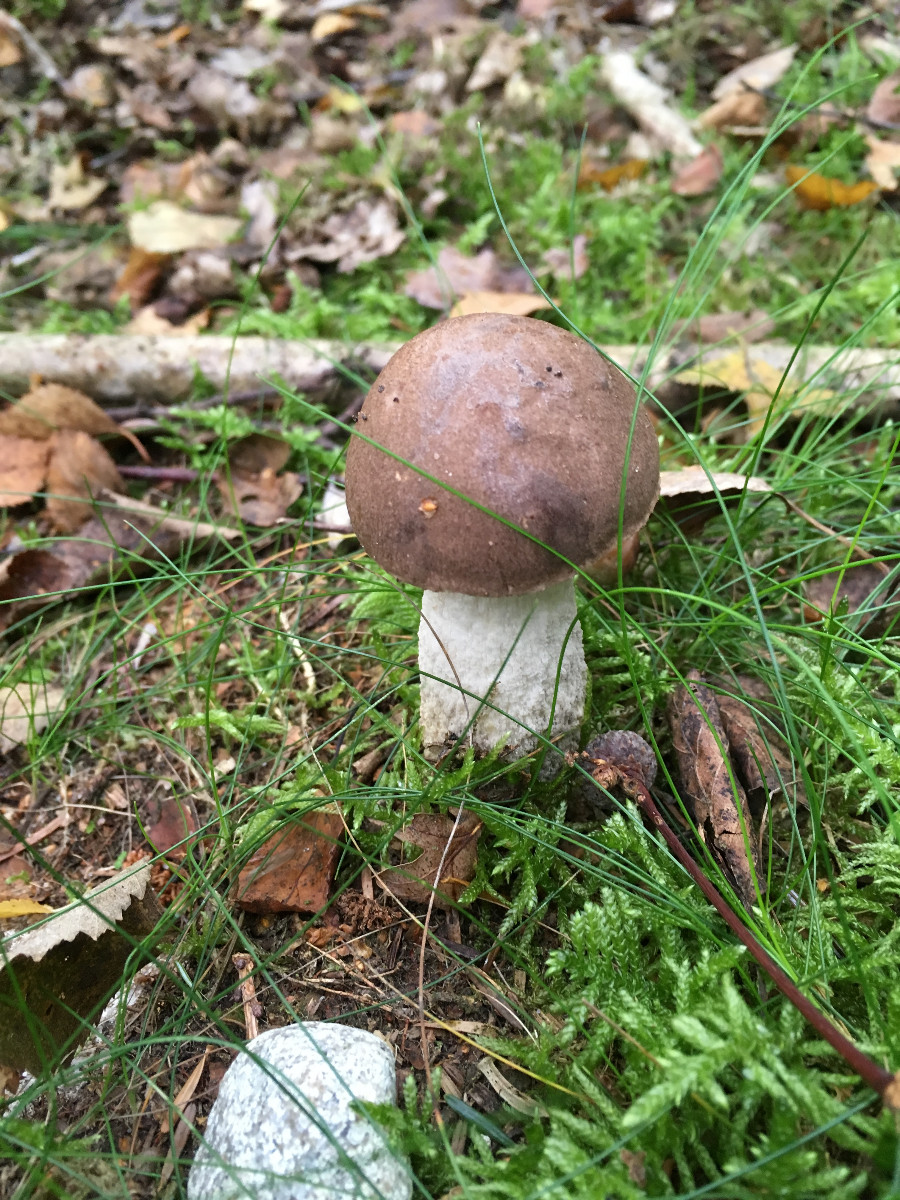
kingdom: Fungi
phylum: Basidiomycota
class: Agaricomycetes
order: Boletales
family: Boletaceae
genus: Leccinum
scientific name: Leccinum scabrum
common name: brun skælrørhat
